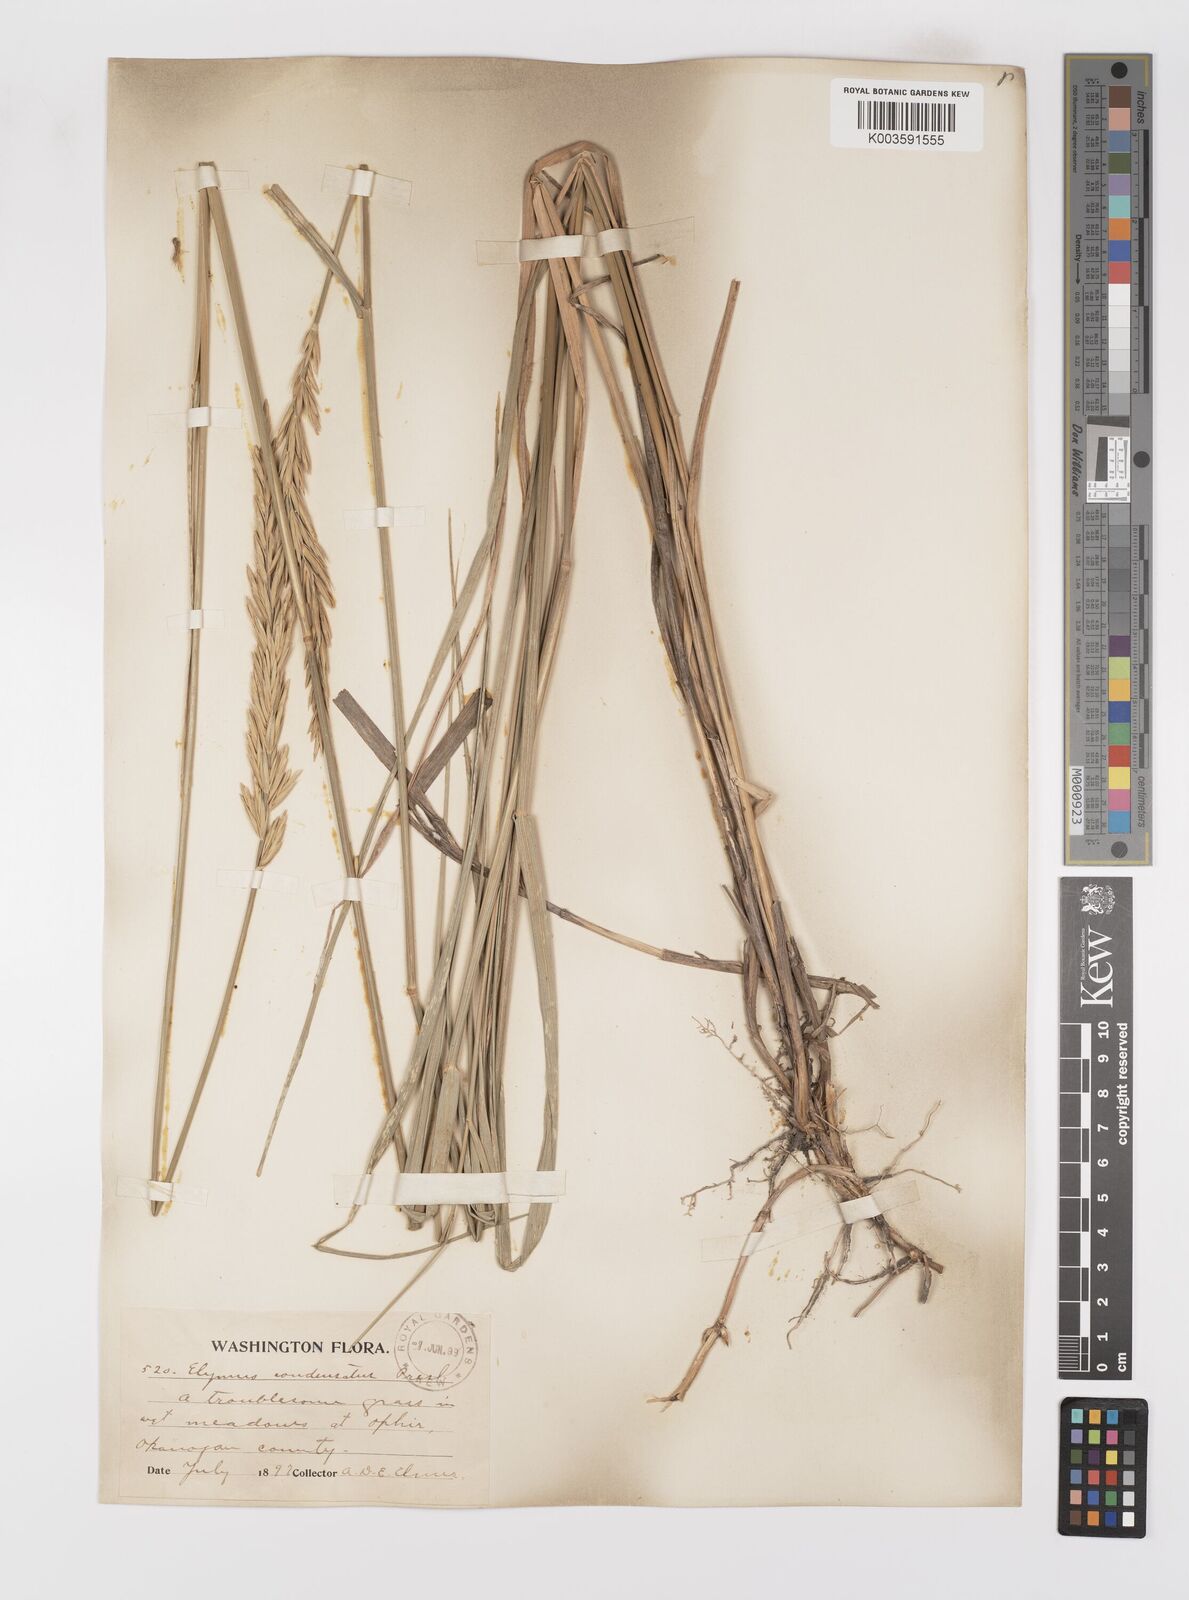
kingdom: Plantae
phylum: Tracheophyta
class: Liliopsida
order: Poales
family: Poaceae
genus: Leymus
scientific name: Leymus condensatus
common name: Giant wild rye
